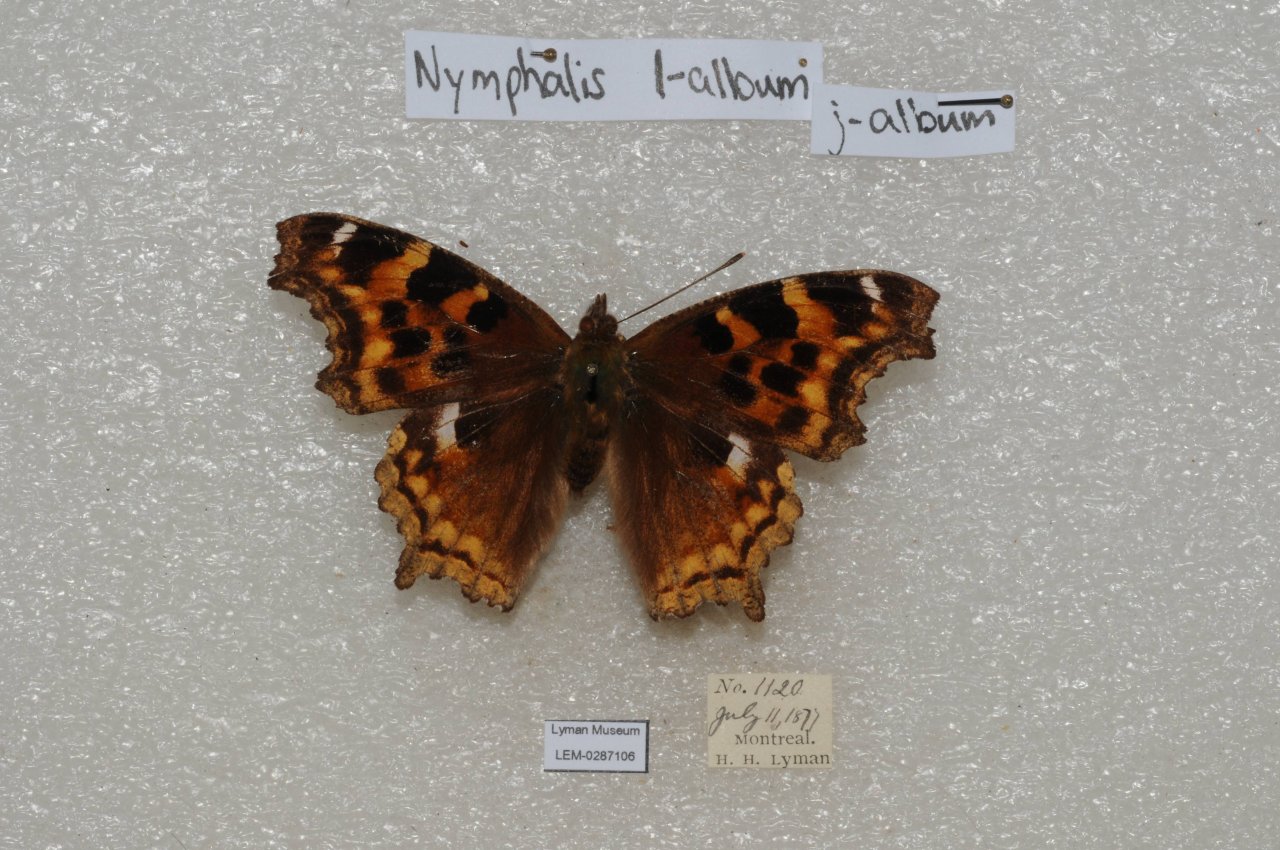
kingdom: Animalia
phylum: Arthropoda
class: Insecta
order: Lepidoptera
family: Nymphalidae
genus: Polygonia
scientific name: Polygonia vaualbum
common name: Compton Tortoiseshell
